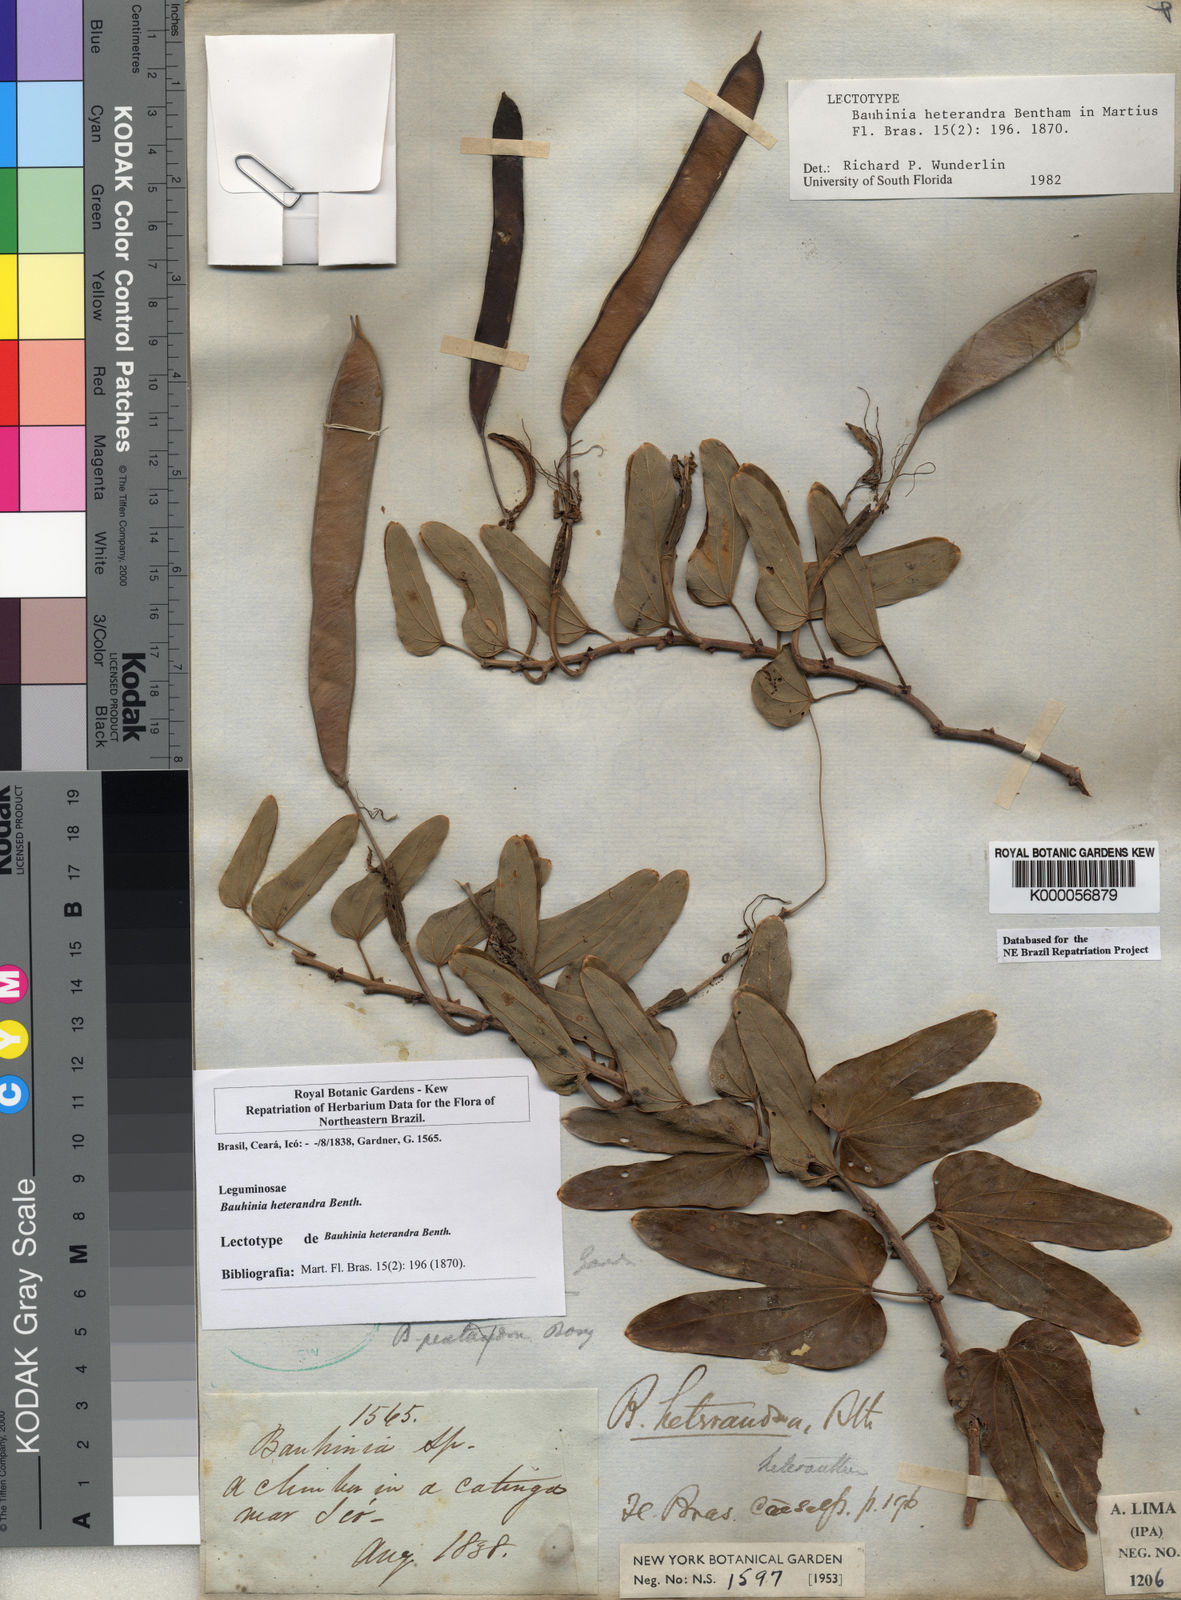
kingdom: Plantae
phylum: Tracheophyta
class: Magnoliopsida
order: Fabales
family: Fabaceae
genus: Bauhinia
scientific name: Bauhinia pentandra
